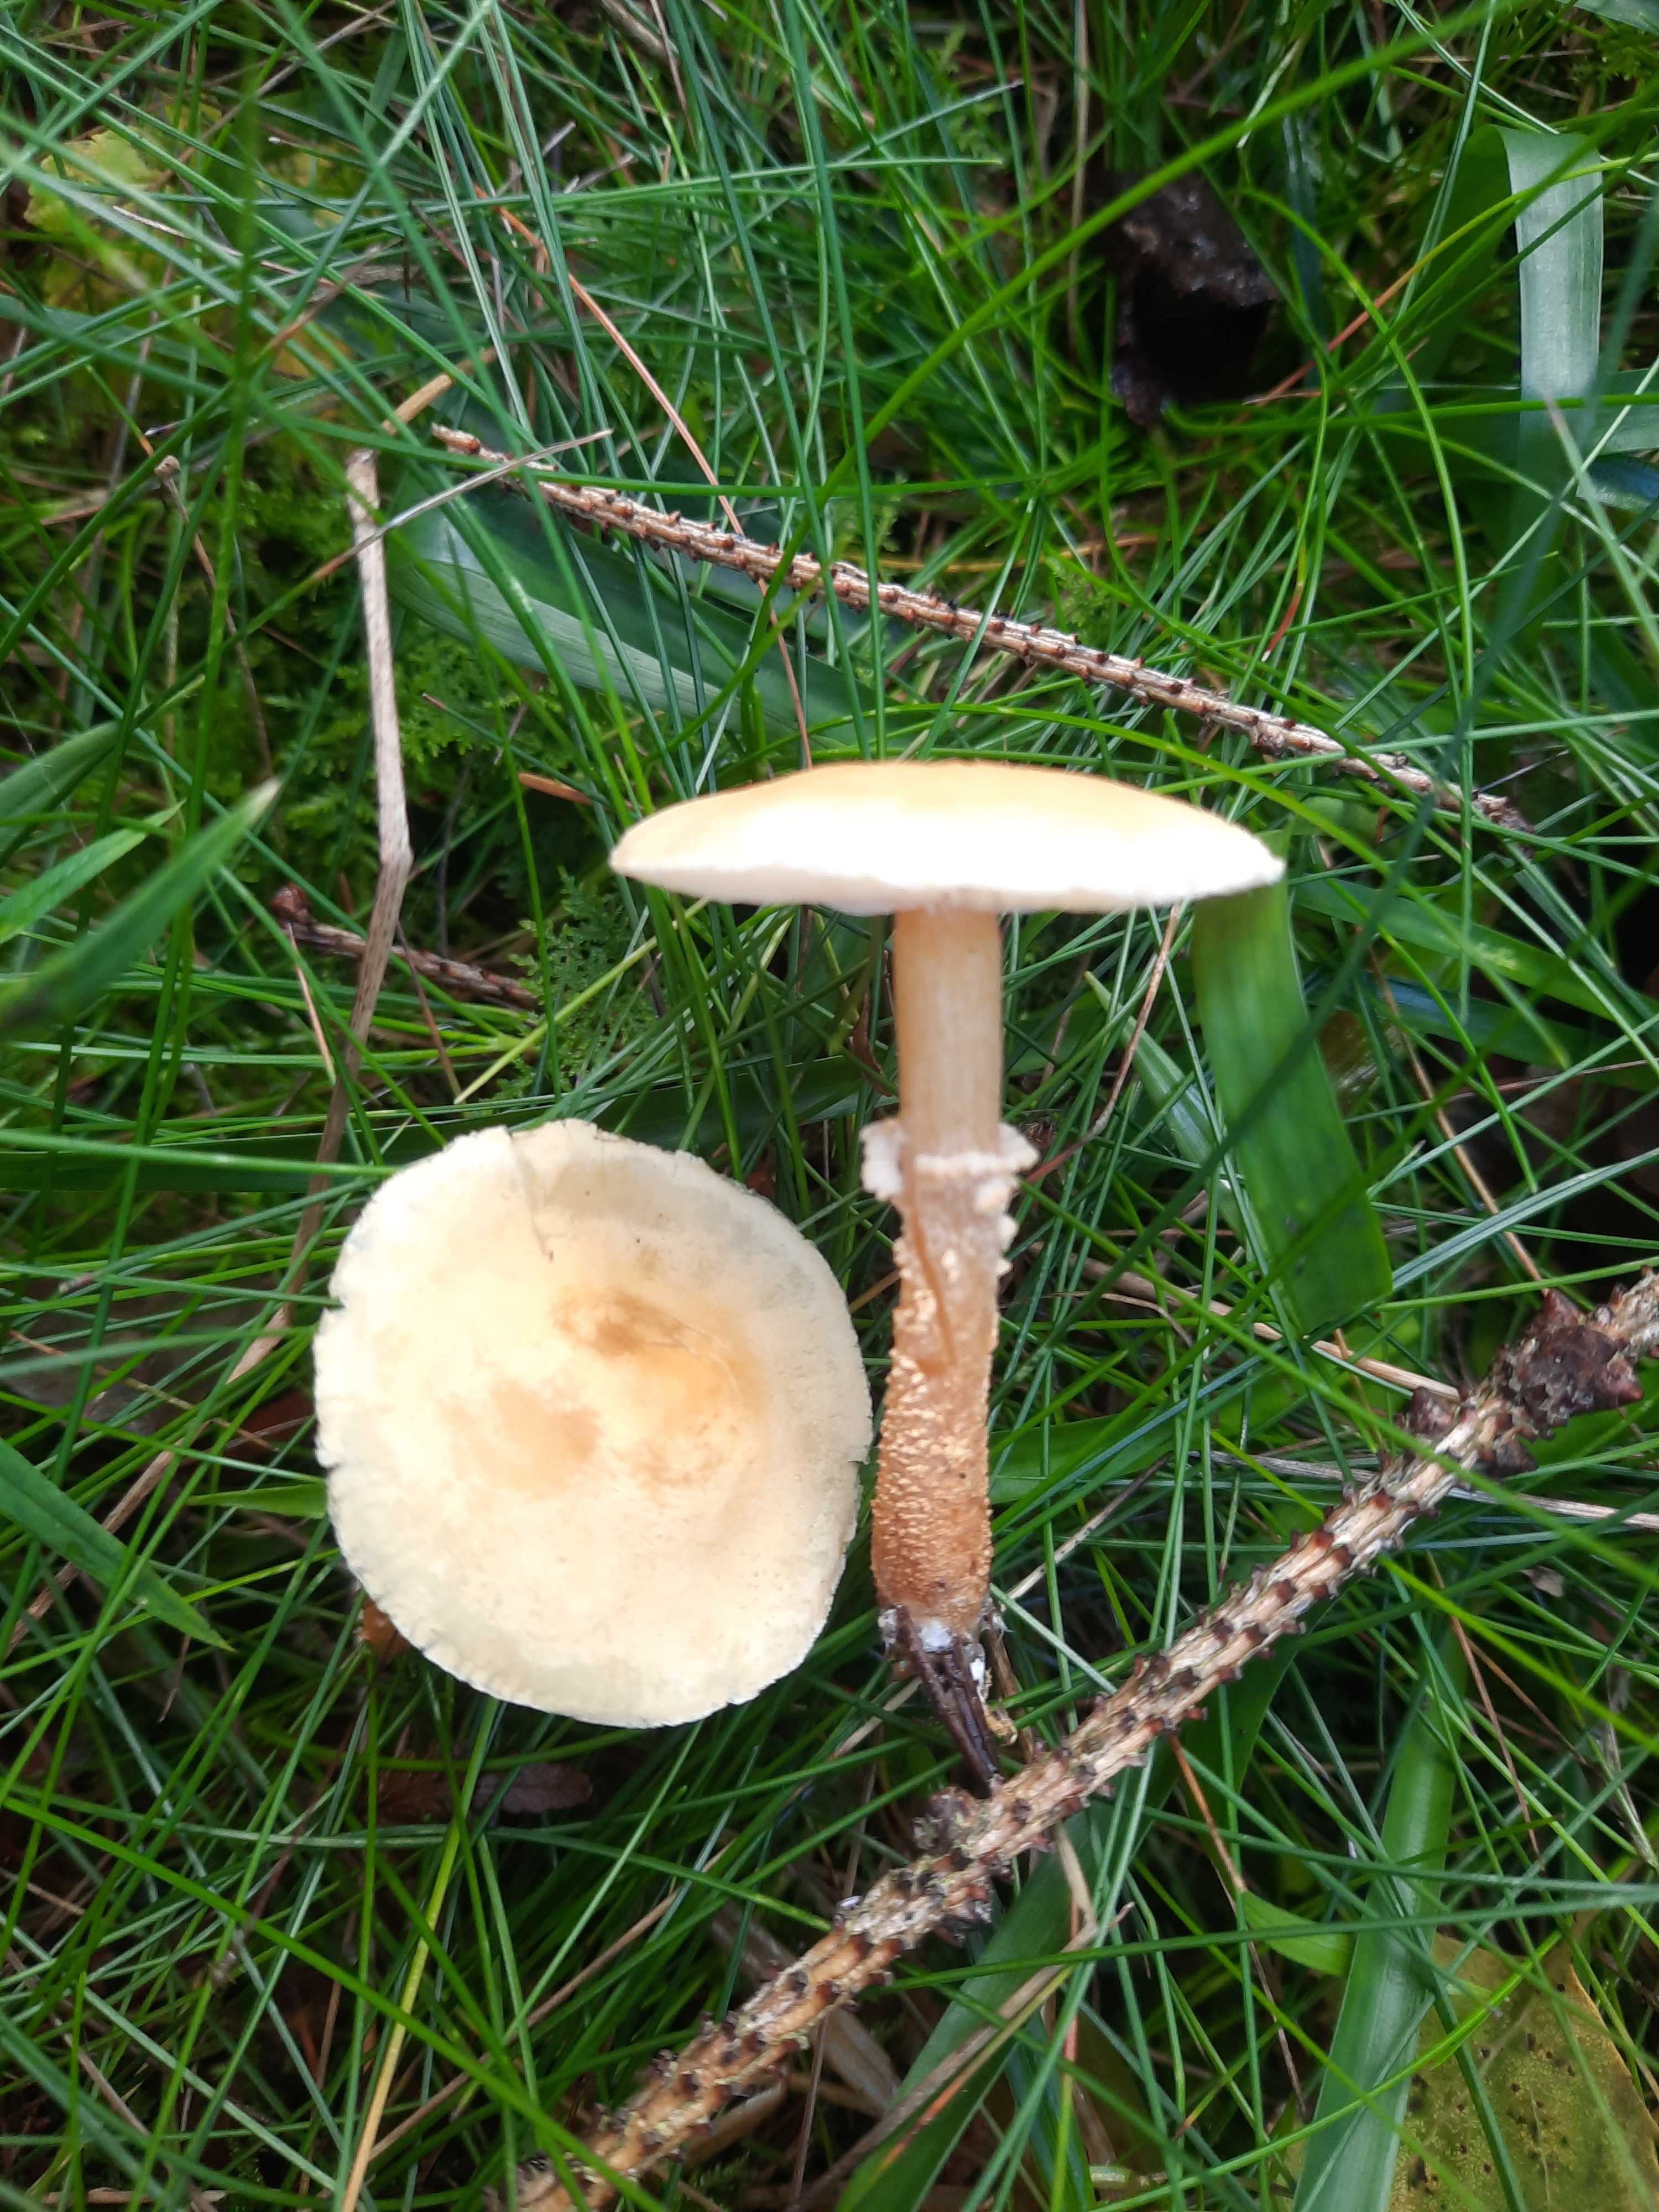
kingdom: Fungi
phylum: Basidiomycota
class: Agaricomycetes
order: Agaricales
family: Tricholomataceae
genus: Cystoderma
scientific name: Cystoderma amianthinum
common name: okkergul grynhat
